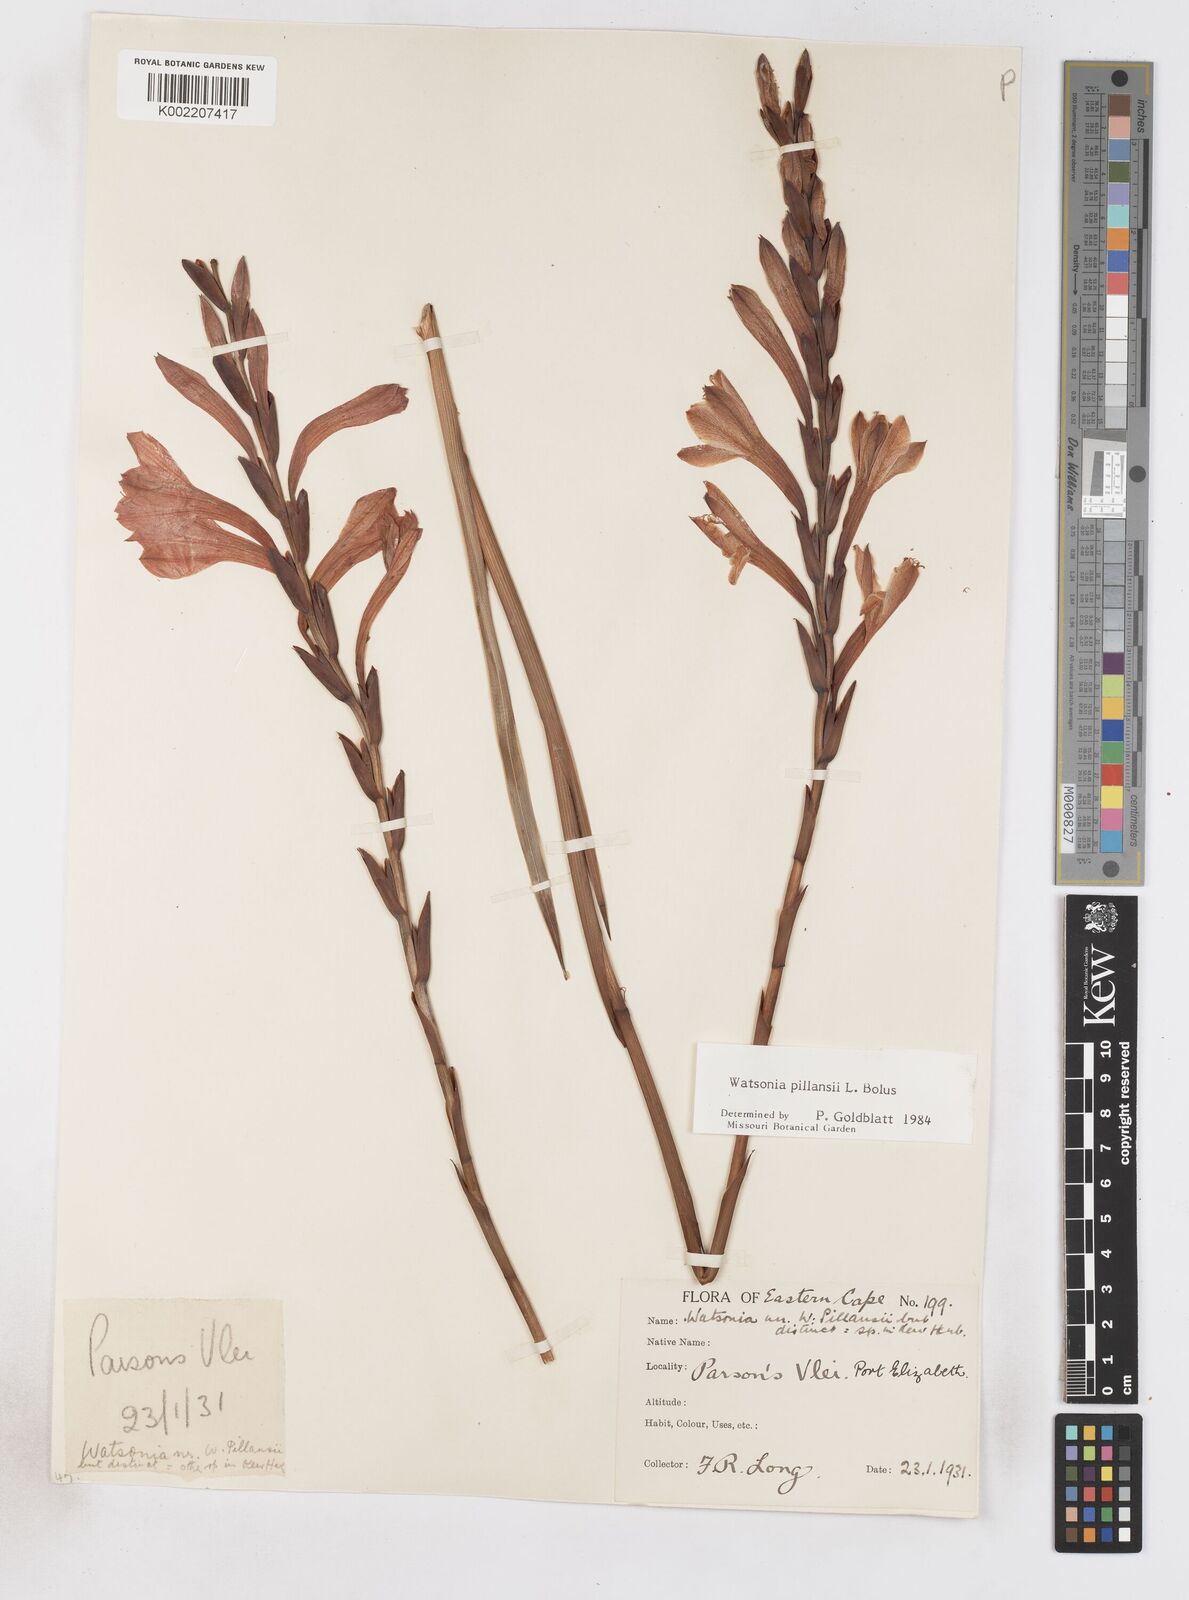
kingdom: Plantae
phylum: Tracheophyta
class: Liliopsida
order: Asparagales
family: Iridaceae
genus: Watsonia
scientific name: Watsonia pillansii
